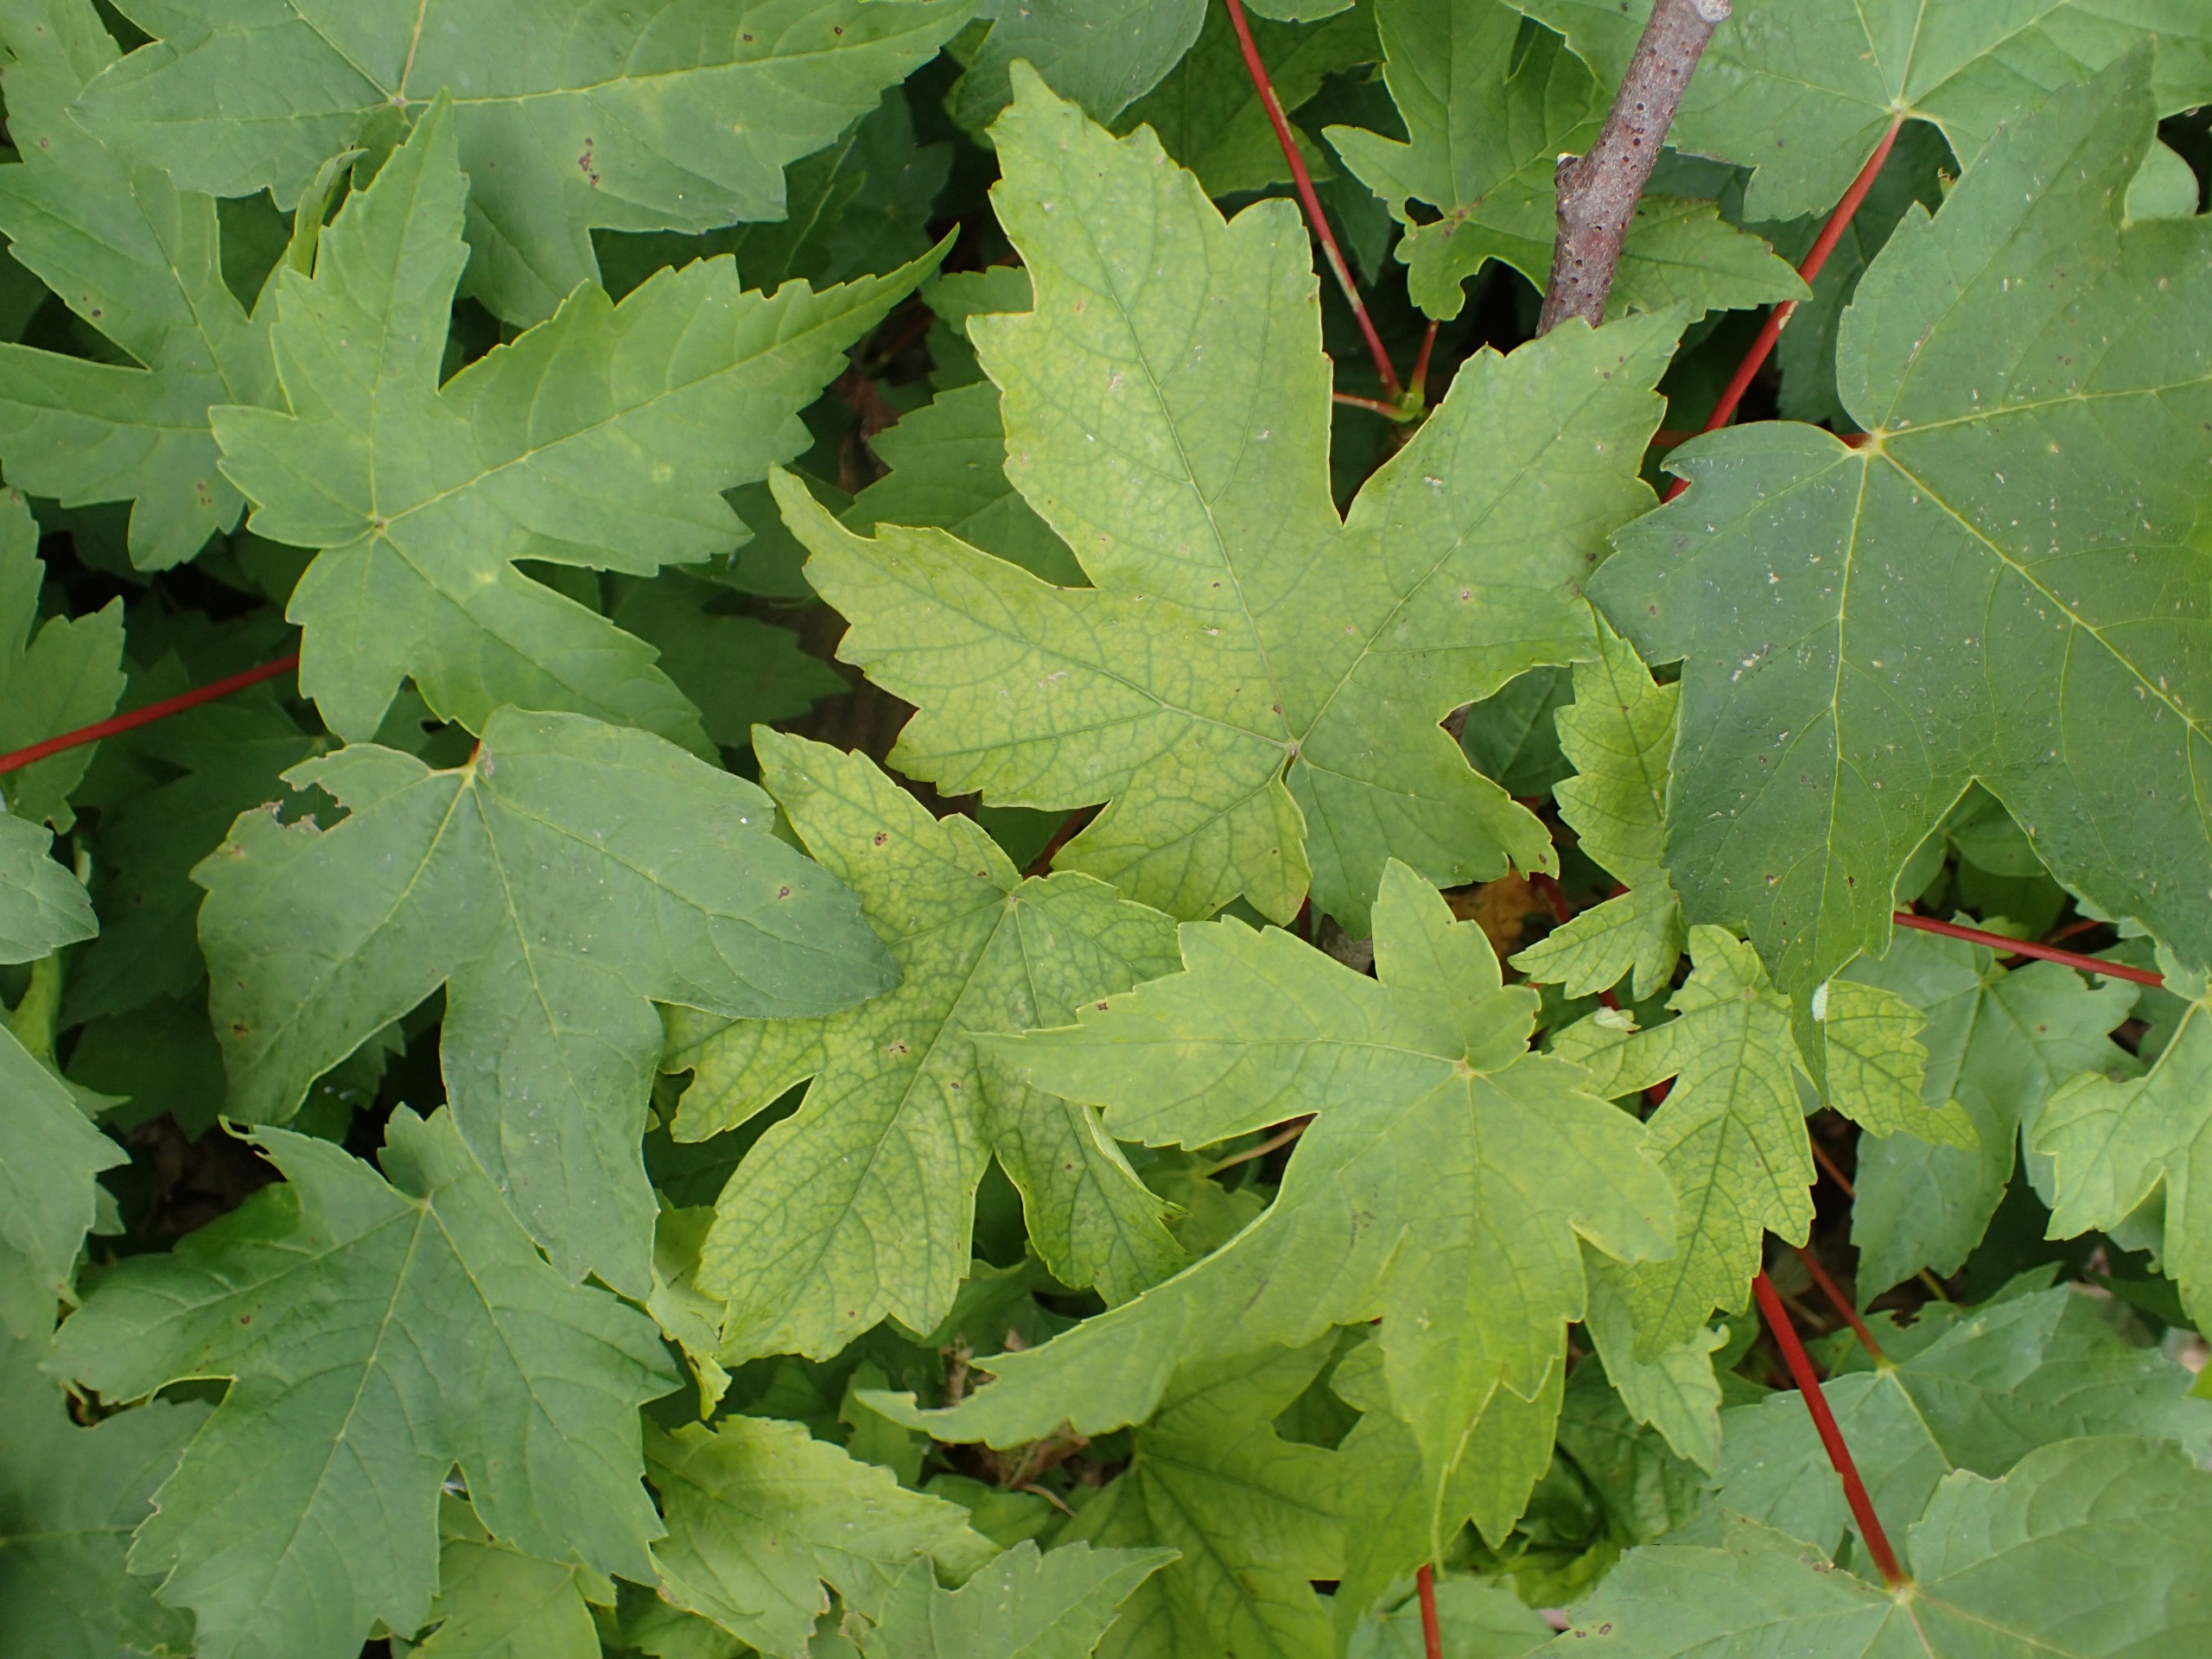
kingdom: Plantae
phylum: Tracheophyta
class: Magnoliopsida
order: Sapindales
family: Sapindaceae
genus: Acer
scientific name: Acer pseudoplatanus
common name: Ahorn
